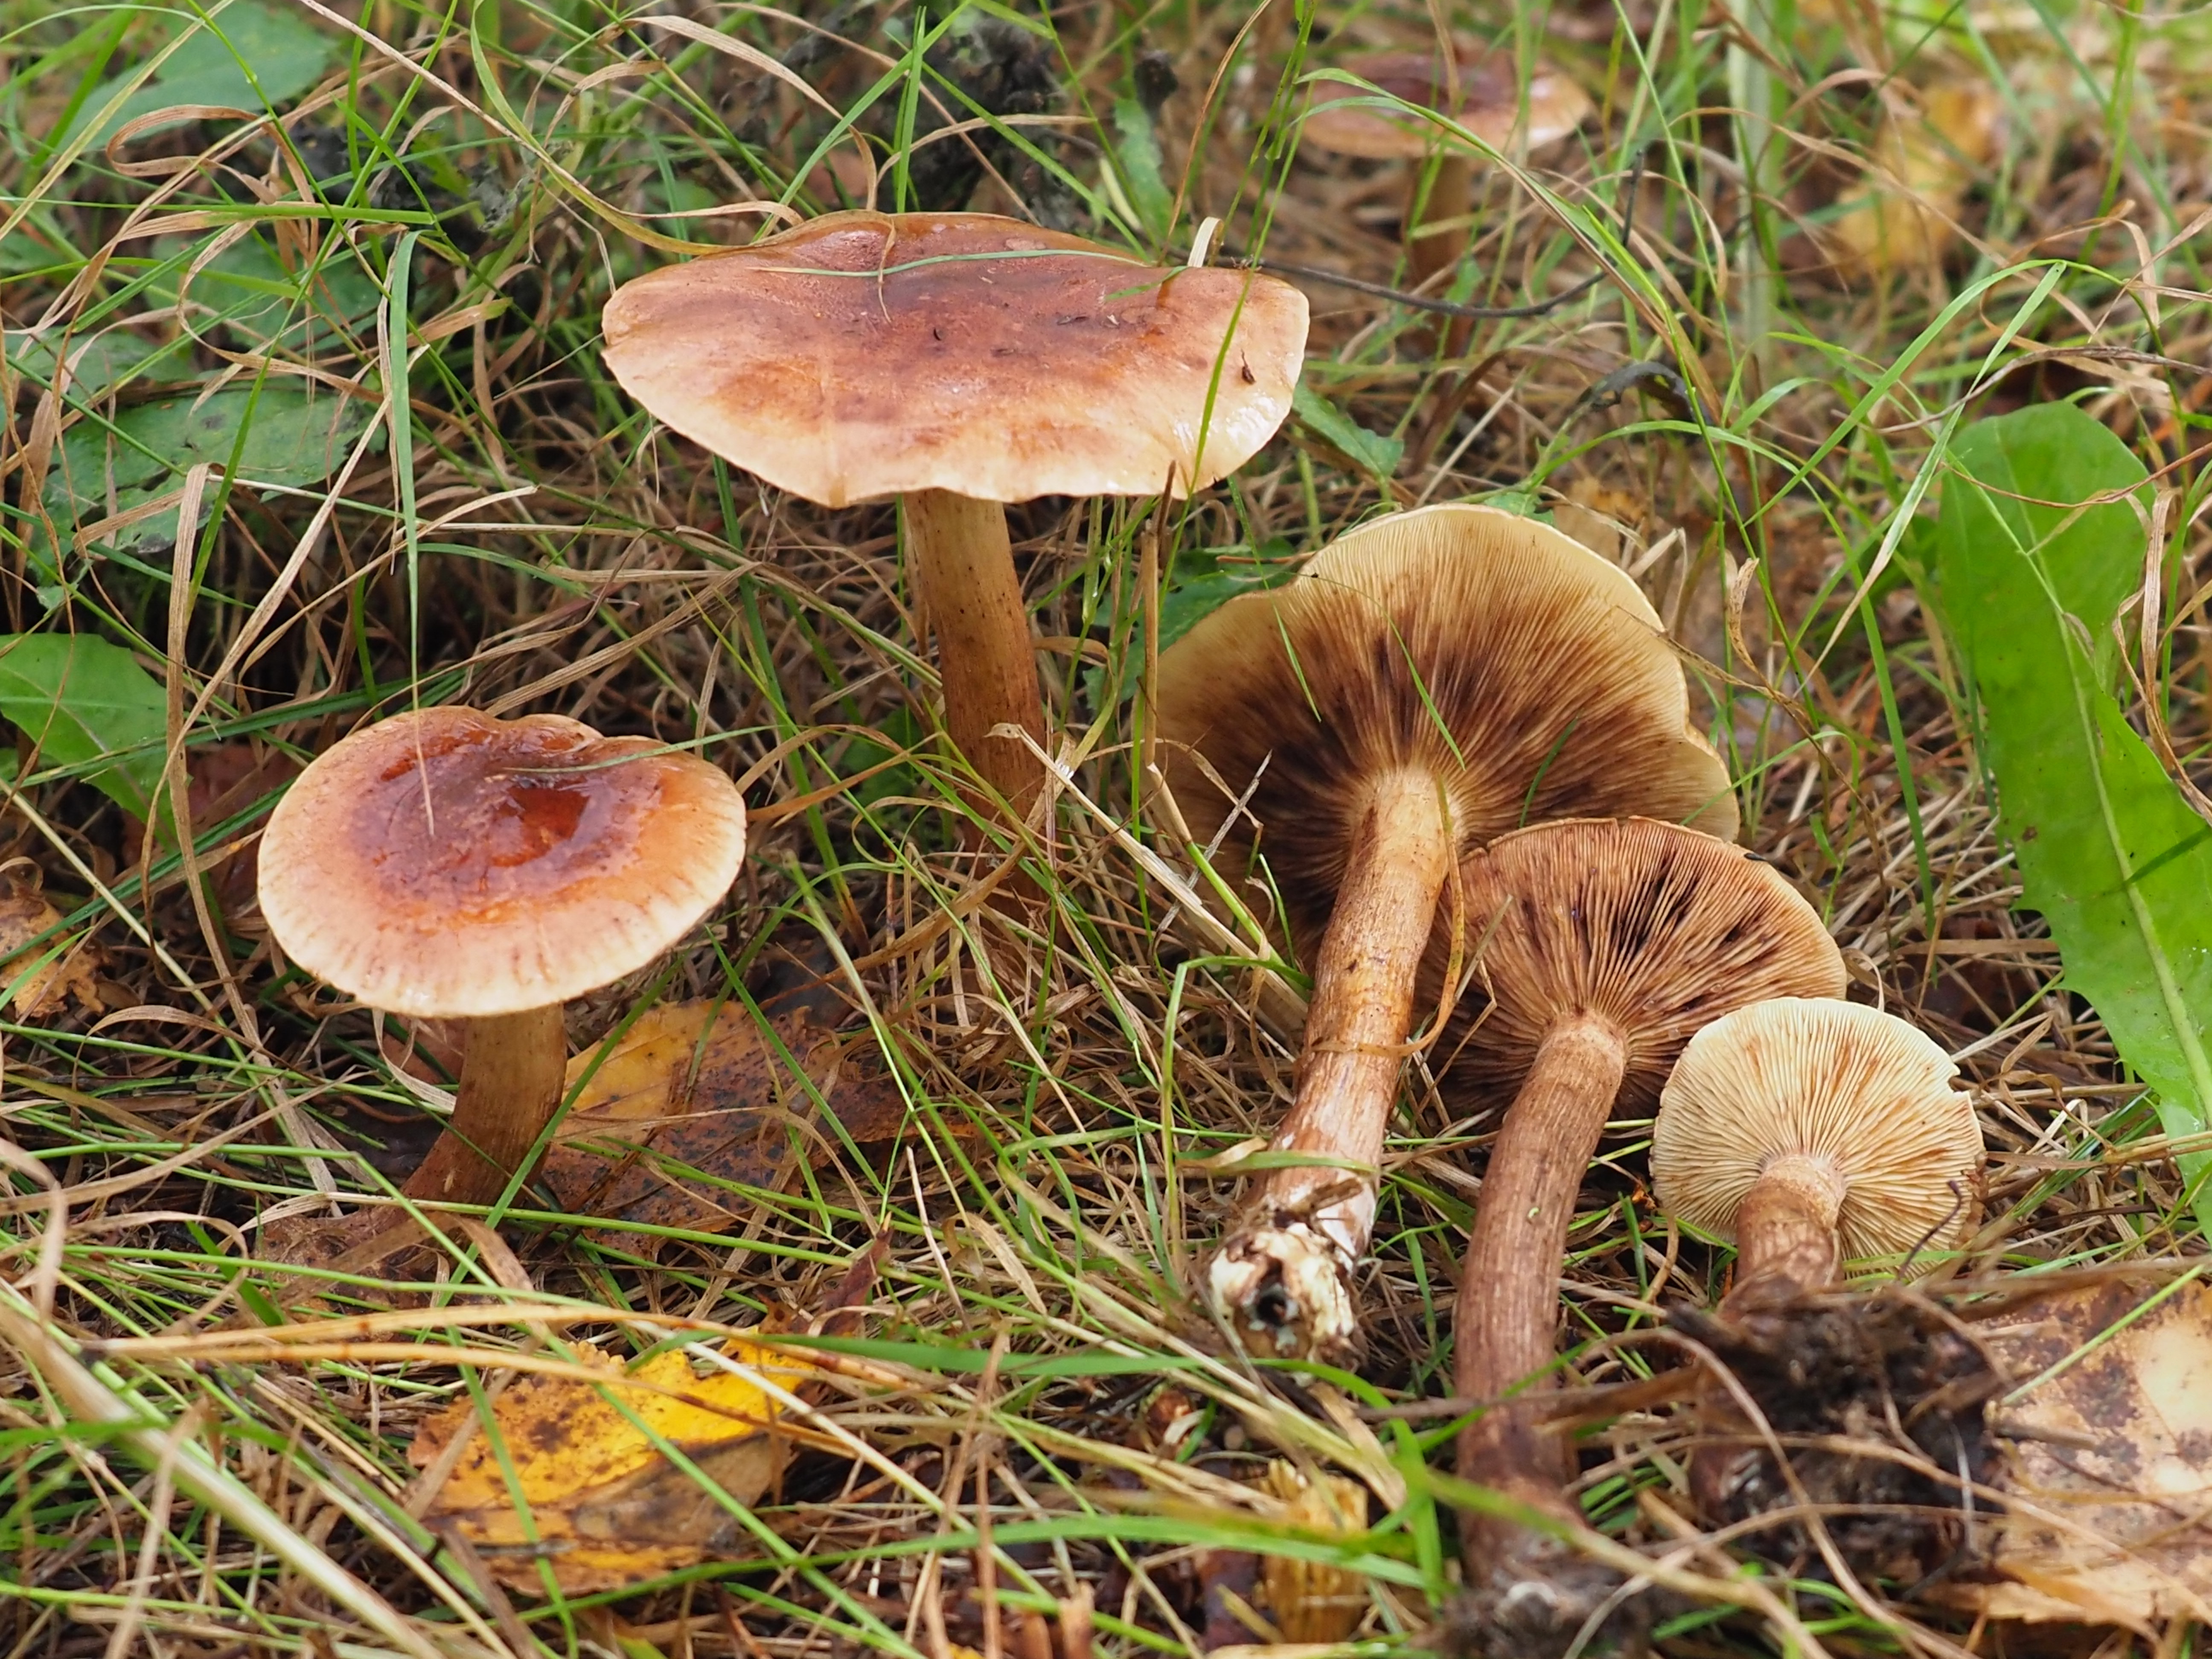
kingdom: Fungi
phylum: Basidiomycota
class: Agaricomycetes
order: Agaricales
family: Tricholomataceae
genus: Tricholoma
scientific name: Tricholoma fulvum
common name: Birch knight
